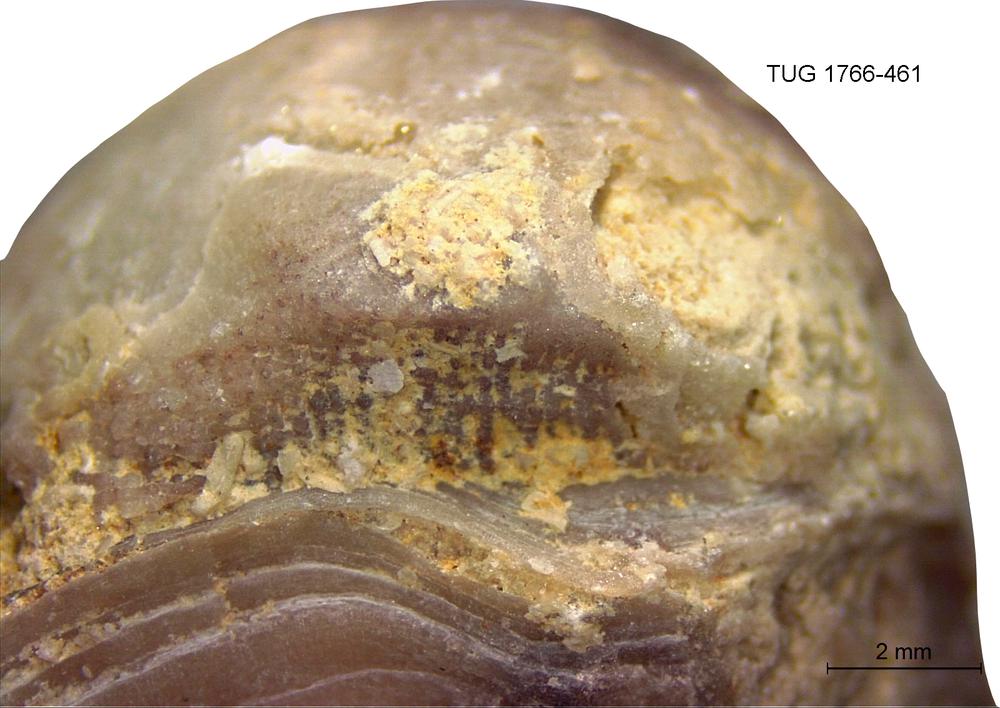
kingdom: Animalia
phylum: Echinodermata
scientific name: Echinodermata
